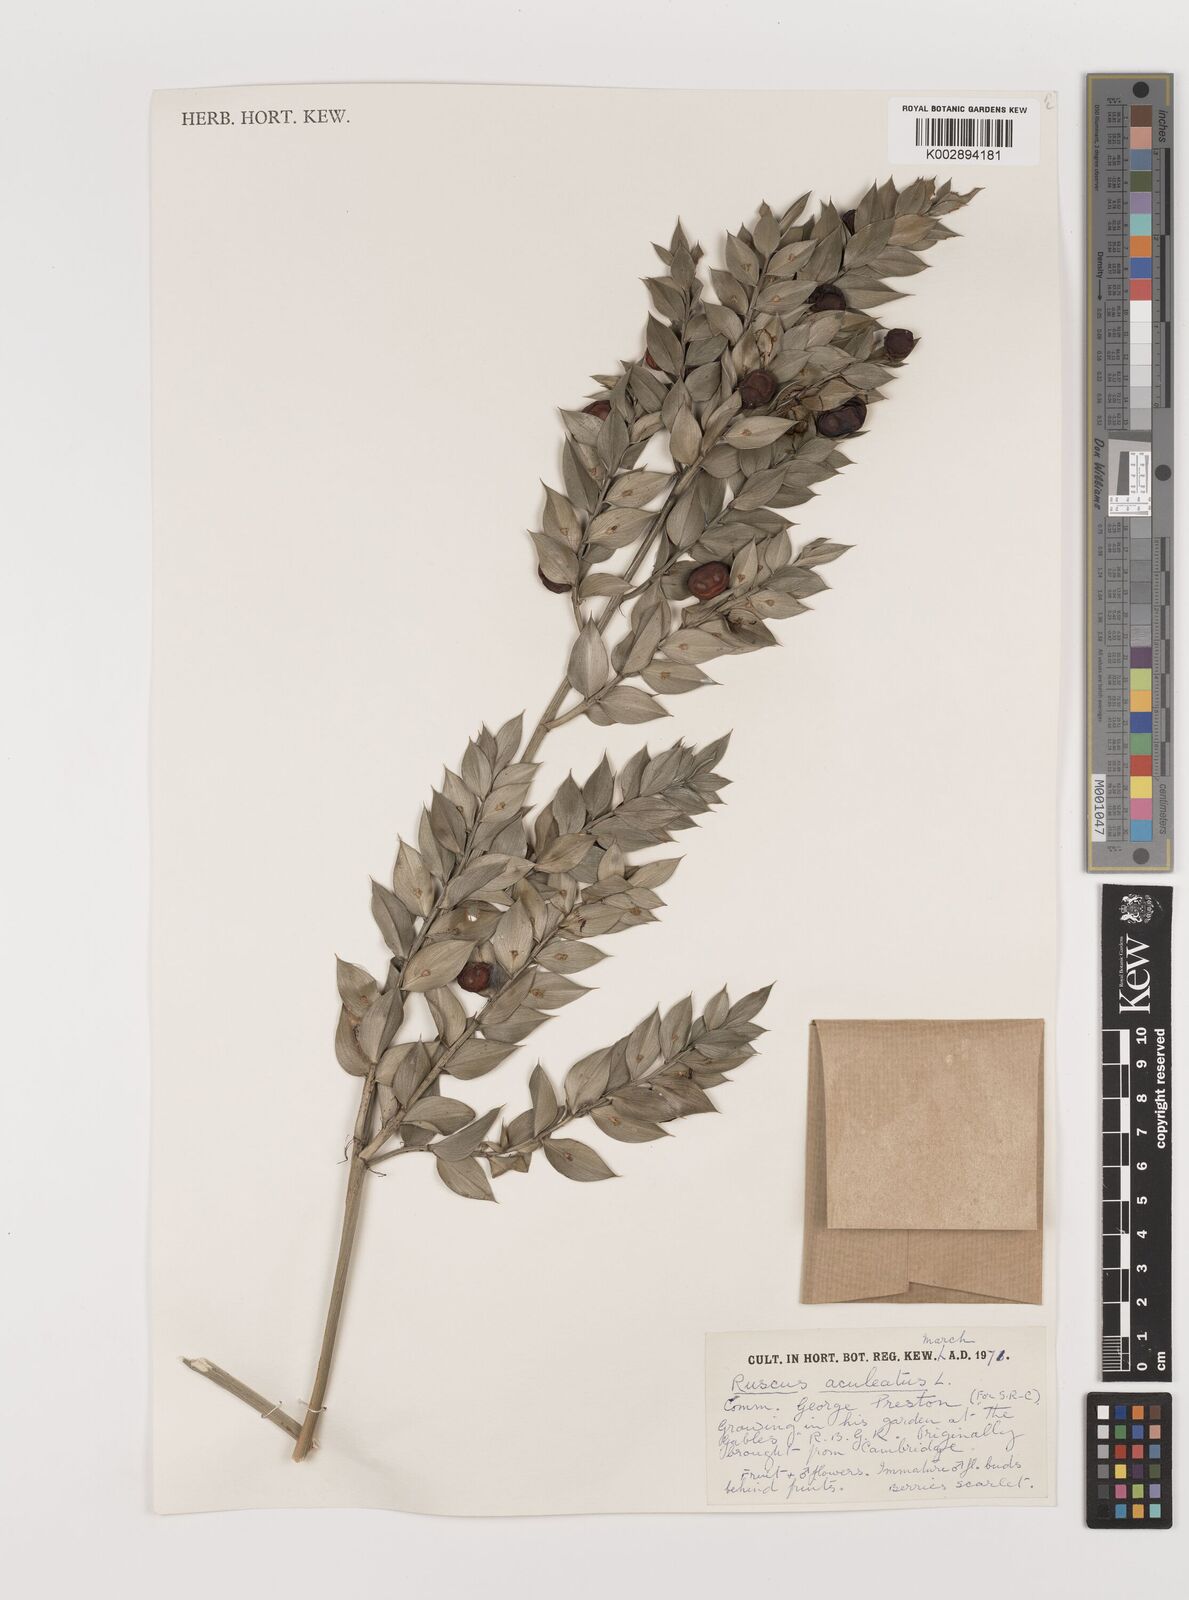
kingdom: Plantae
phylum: Tracheophyta
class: Liliopsida
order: Asparagales
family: Asparagaceae
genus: Ruscus
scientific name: Ruscus aculeatus
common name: Butcher's-broom
